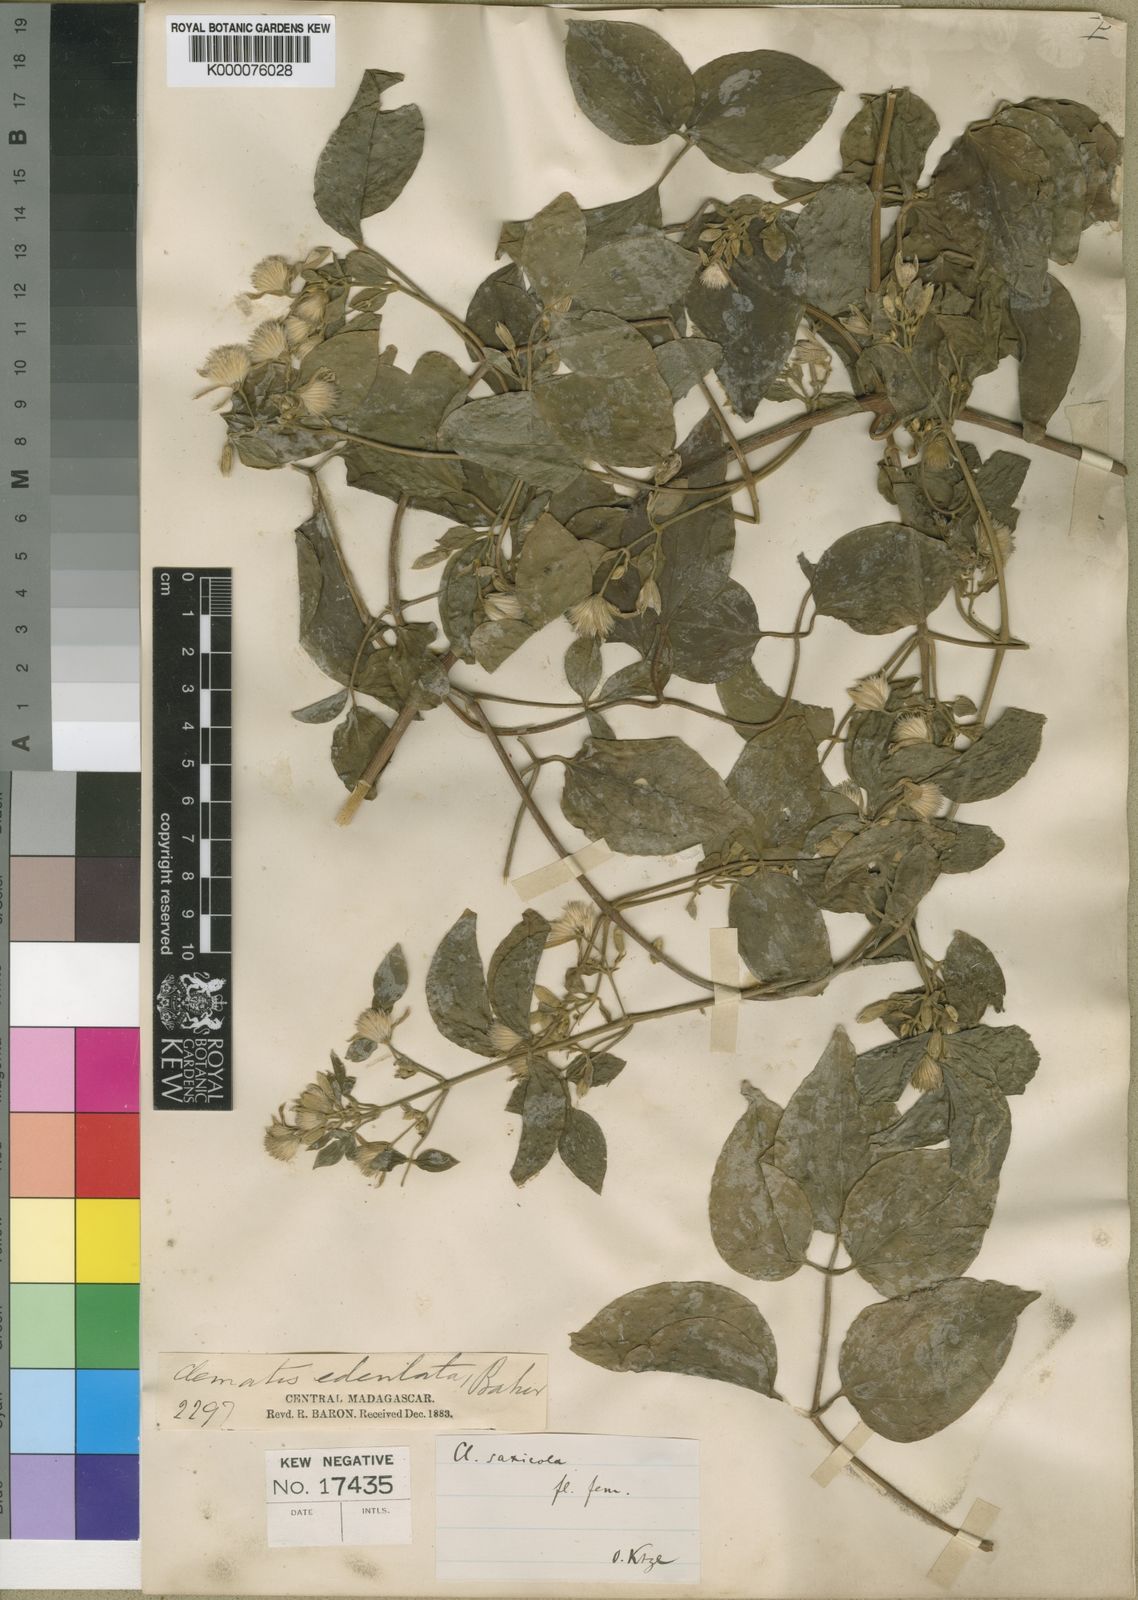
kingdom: Plantae
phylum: Tracheophyta
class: Magnoliopsida
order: Ranunculales
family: Ranunculaceae
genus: Clematis
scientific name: Clematis
